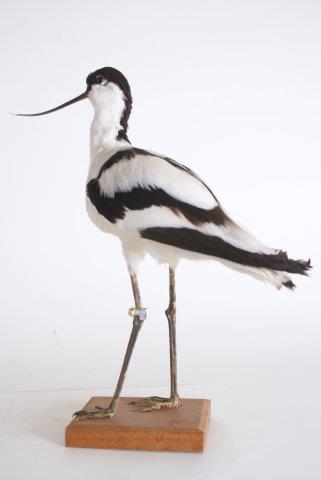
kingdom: Animalia
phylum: Chordata
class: Aves
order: Charadriiformes
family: Recurvirostridae
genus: Recurvirostra
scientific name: Recurvirostra avosetta
